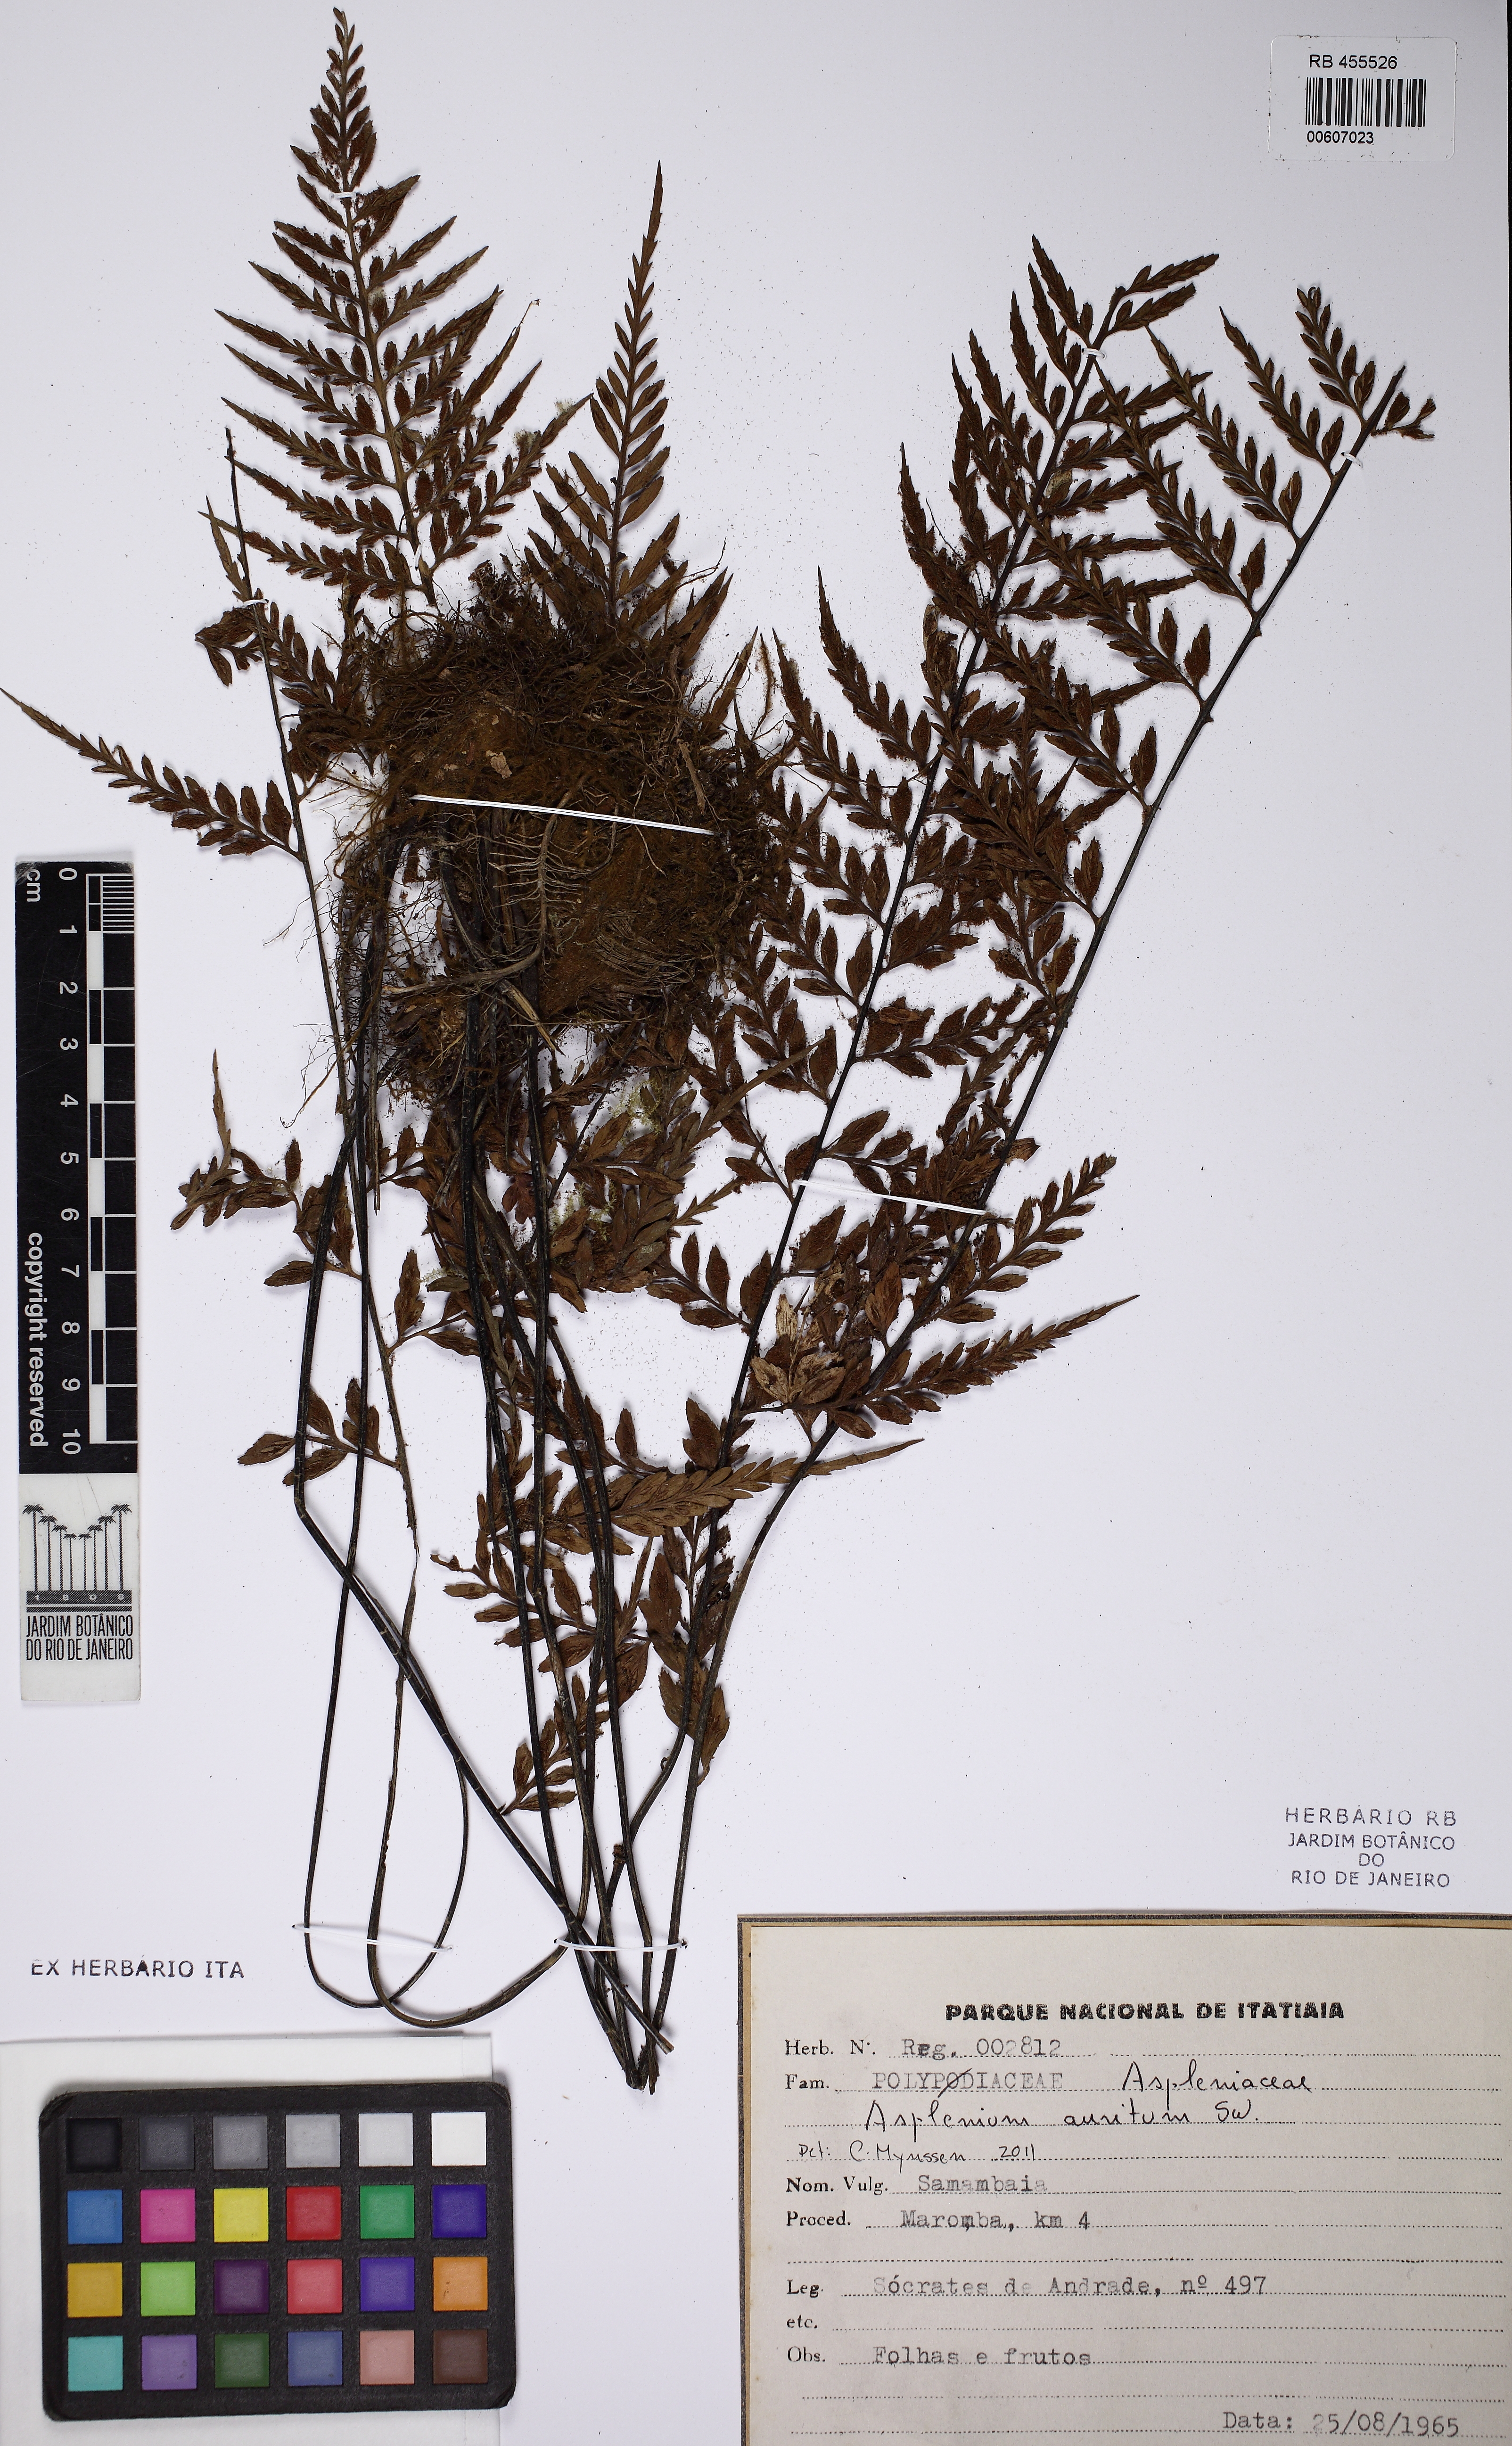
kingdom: Plantae
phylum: Tracheophyta
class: Polypodiopsida
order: Polypodiales
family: Aspleniaceae
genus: Asplenium
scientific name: Asplenium auritum
